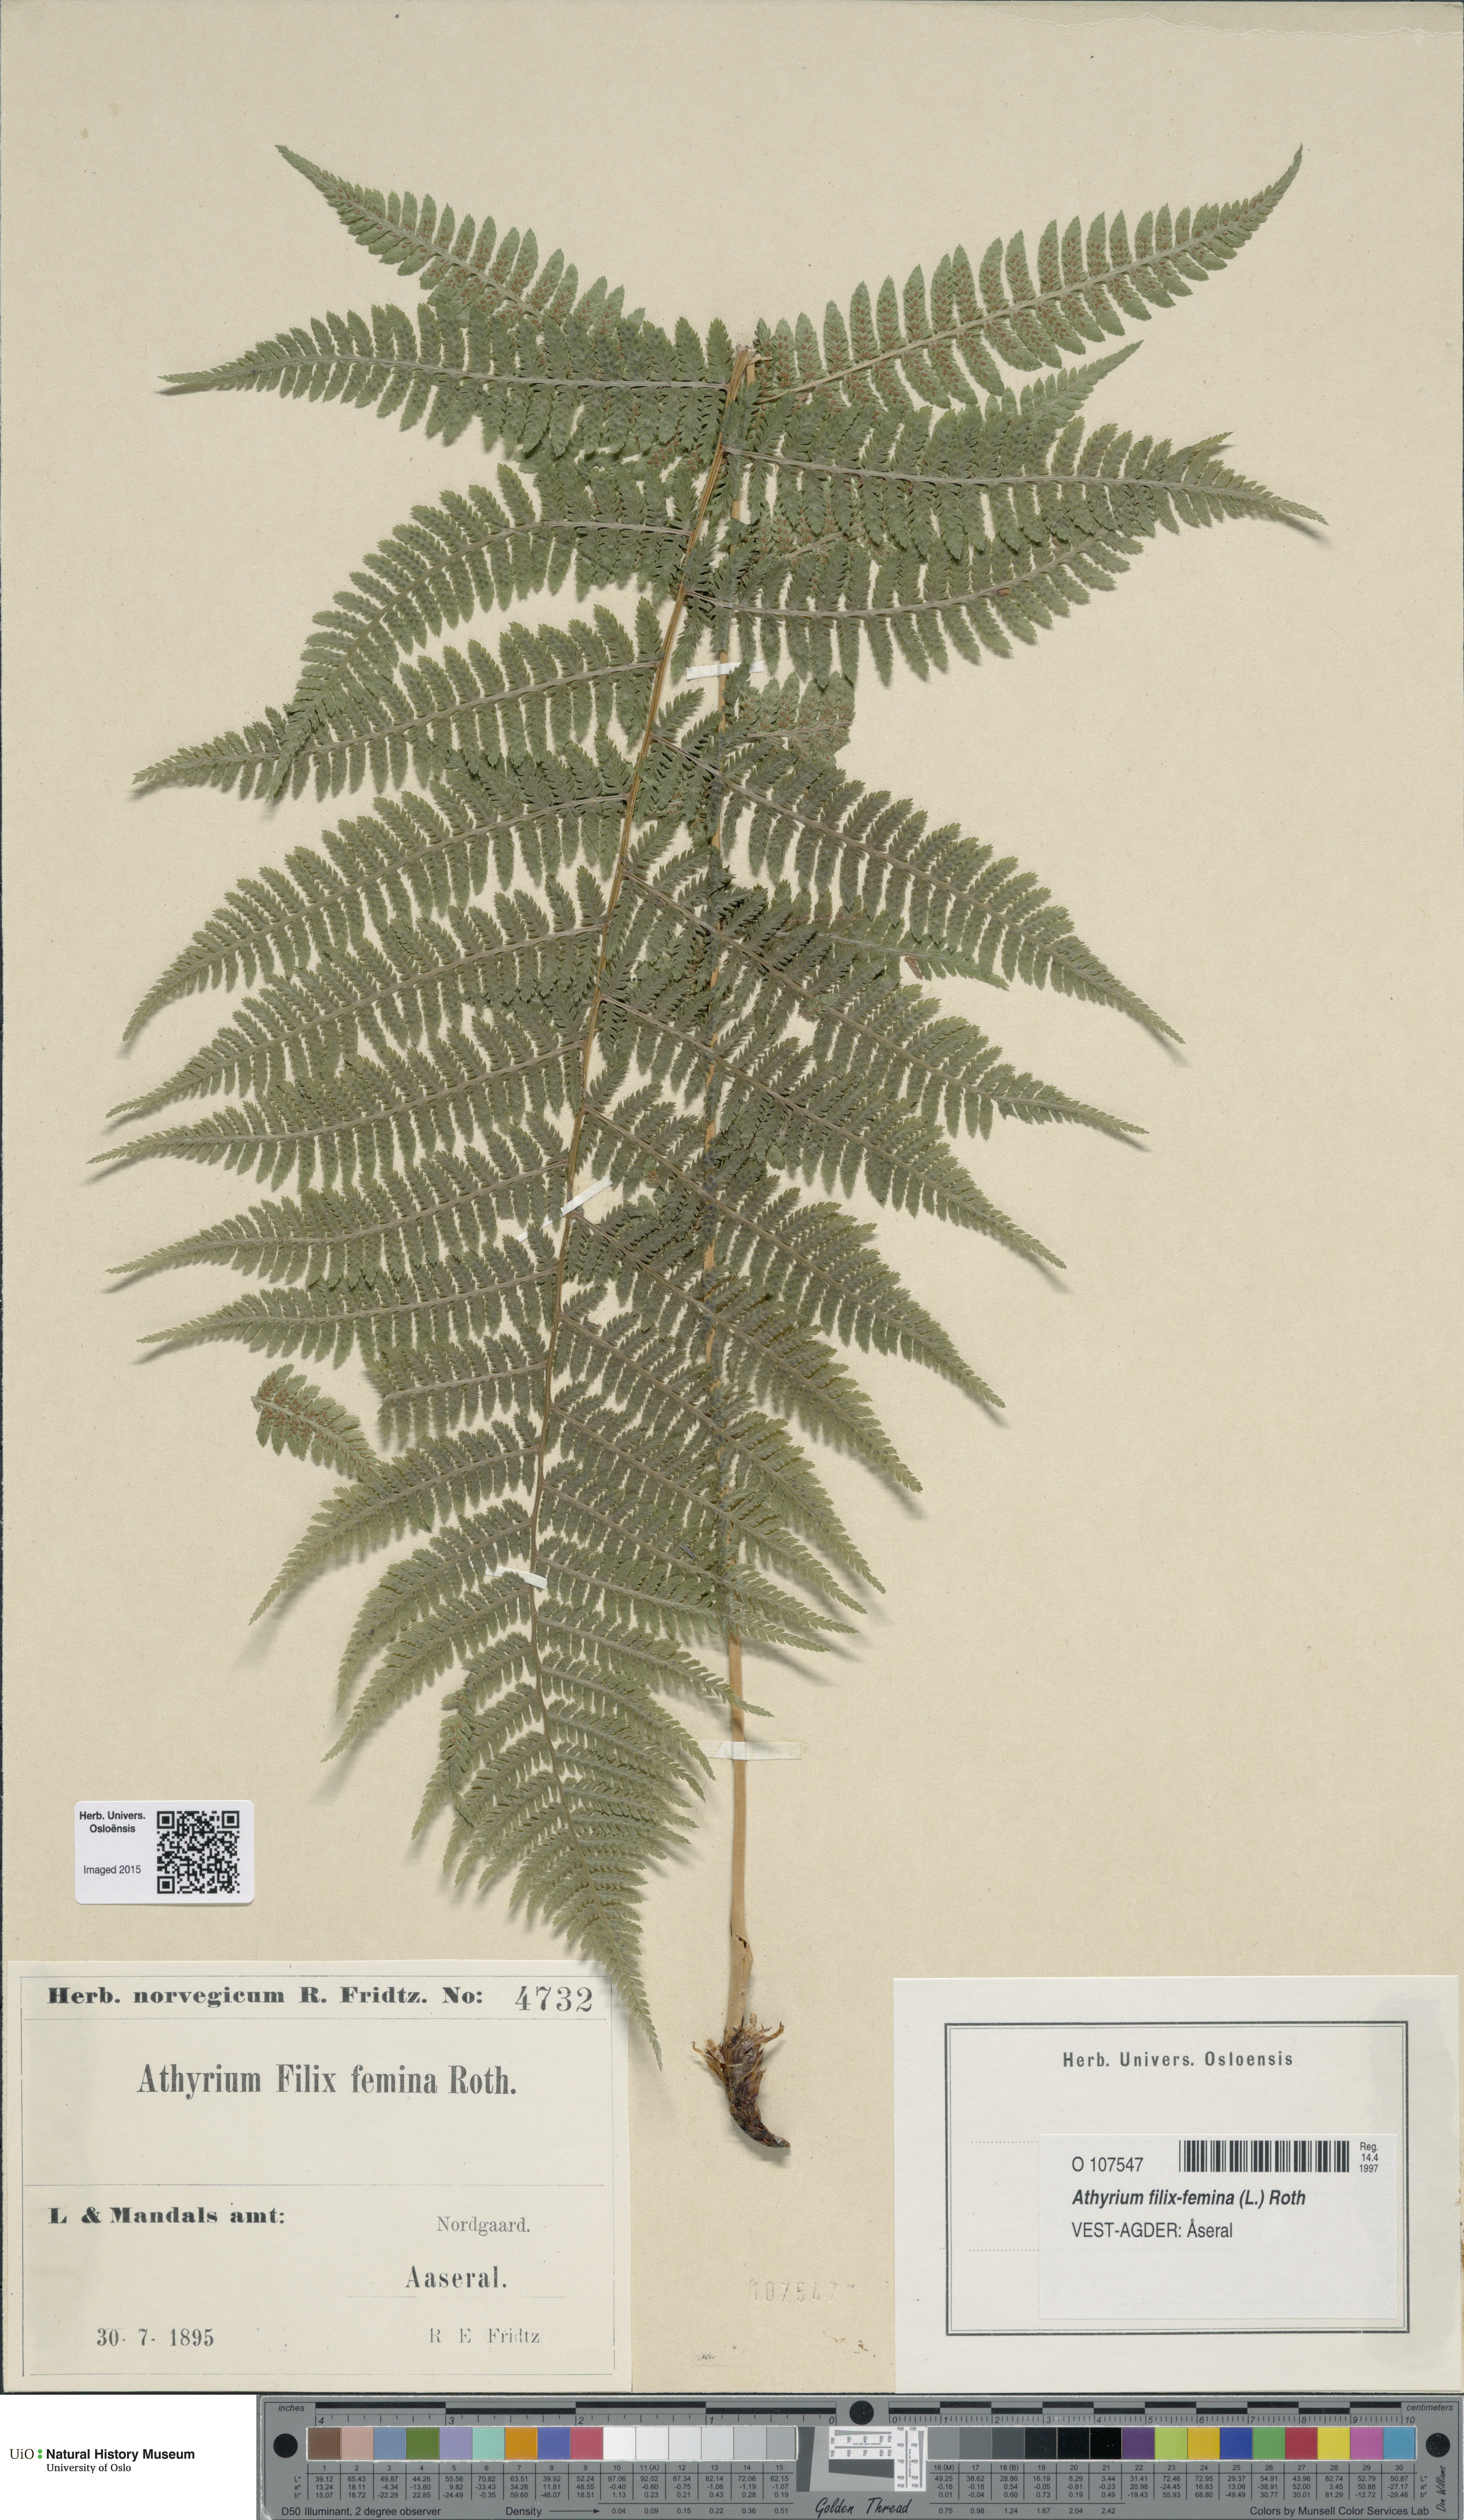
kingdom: Plantae
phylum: Tracheophyta
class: Polypodiopsida
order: Polypodiales
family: Athyriaceae
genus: Athyrium
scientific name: Athyrium filix-femina
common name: Lady fern
